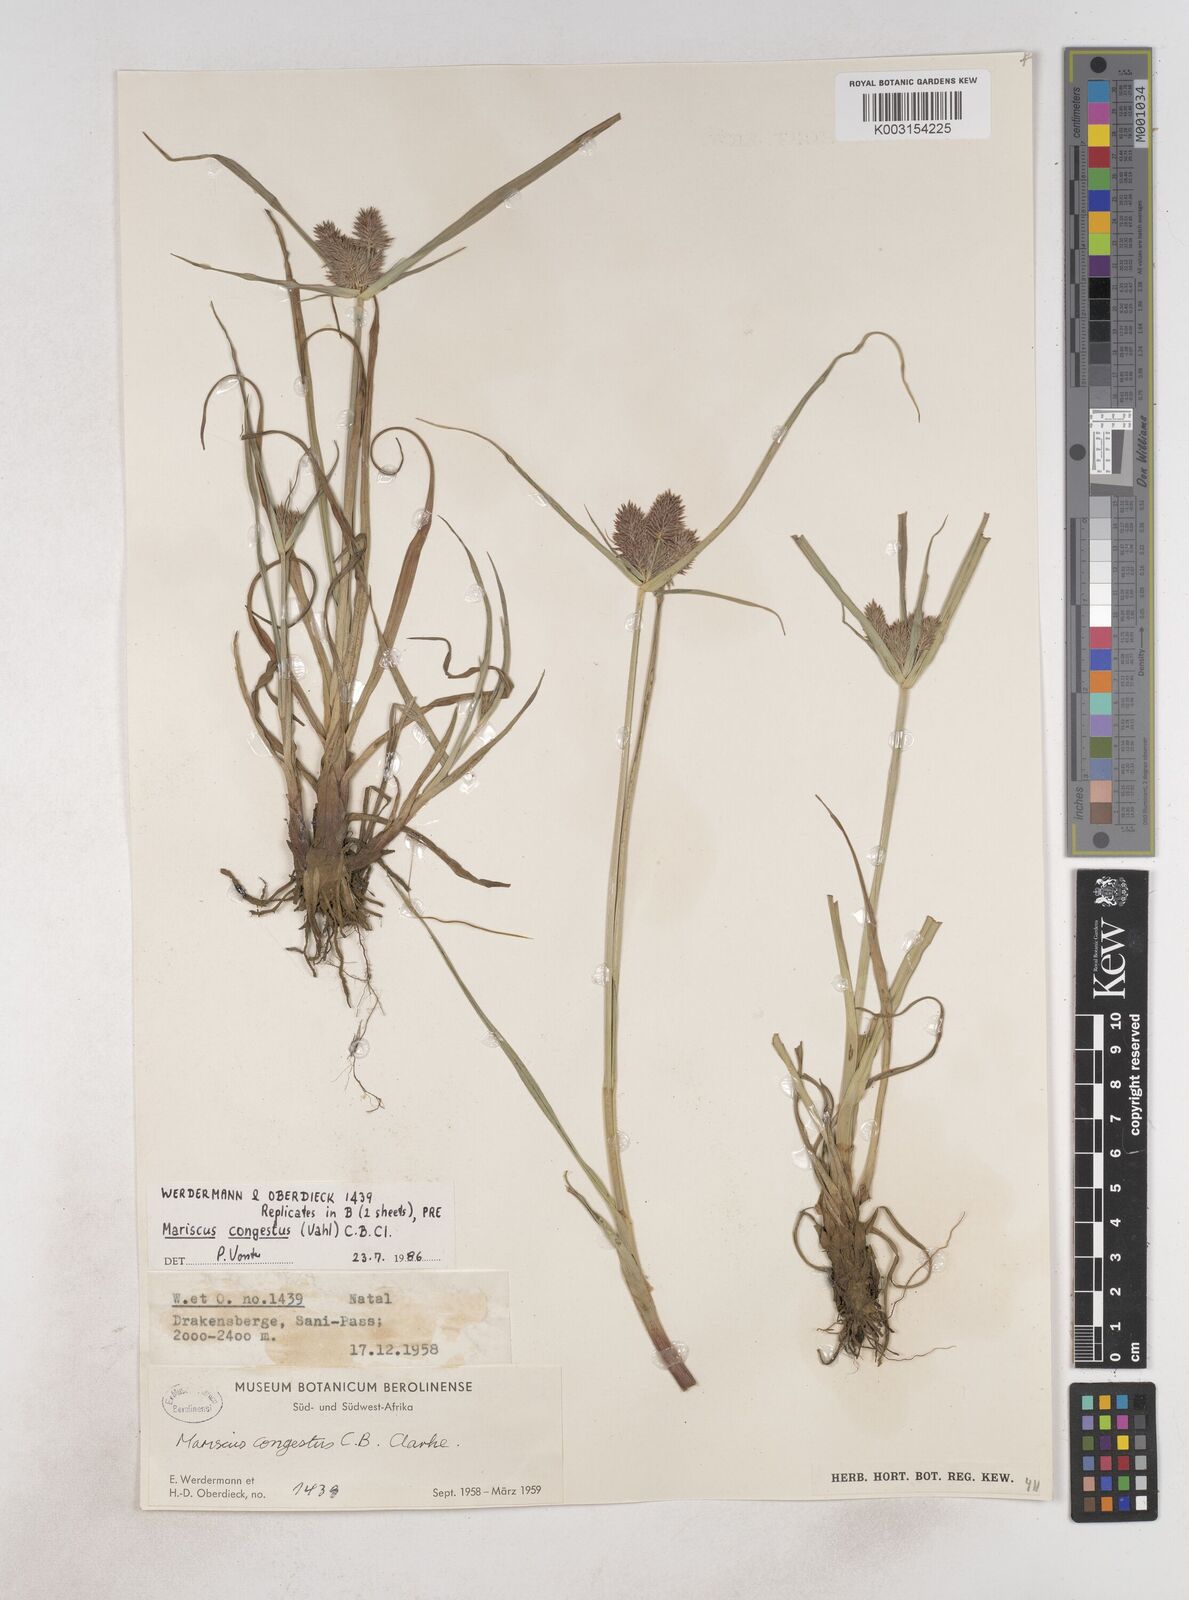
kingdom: Plantae
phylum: Tracheophyta
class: Liliopsida
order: Poales
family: Cyperaceae
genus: Cyperus
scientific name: Cyperus congestus
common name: Dense flat sedge
